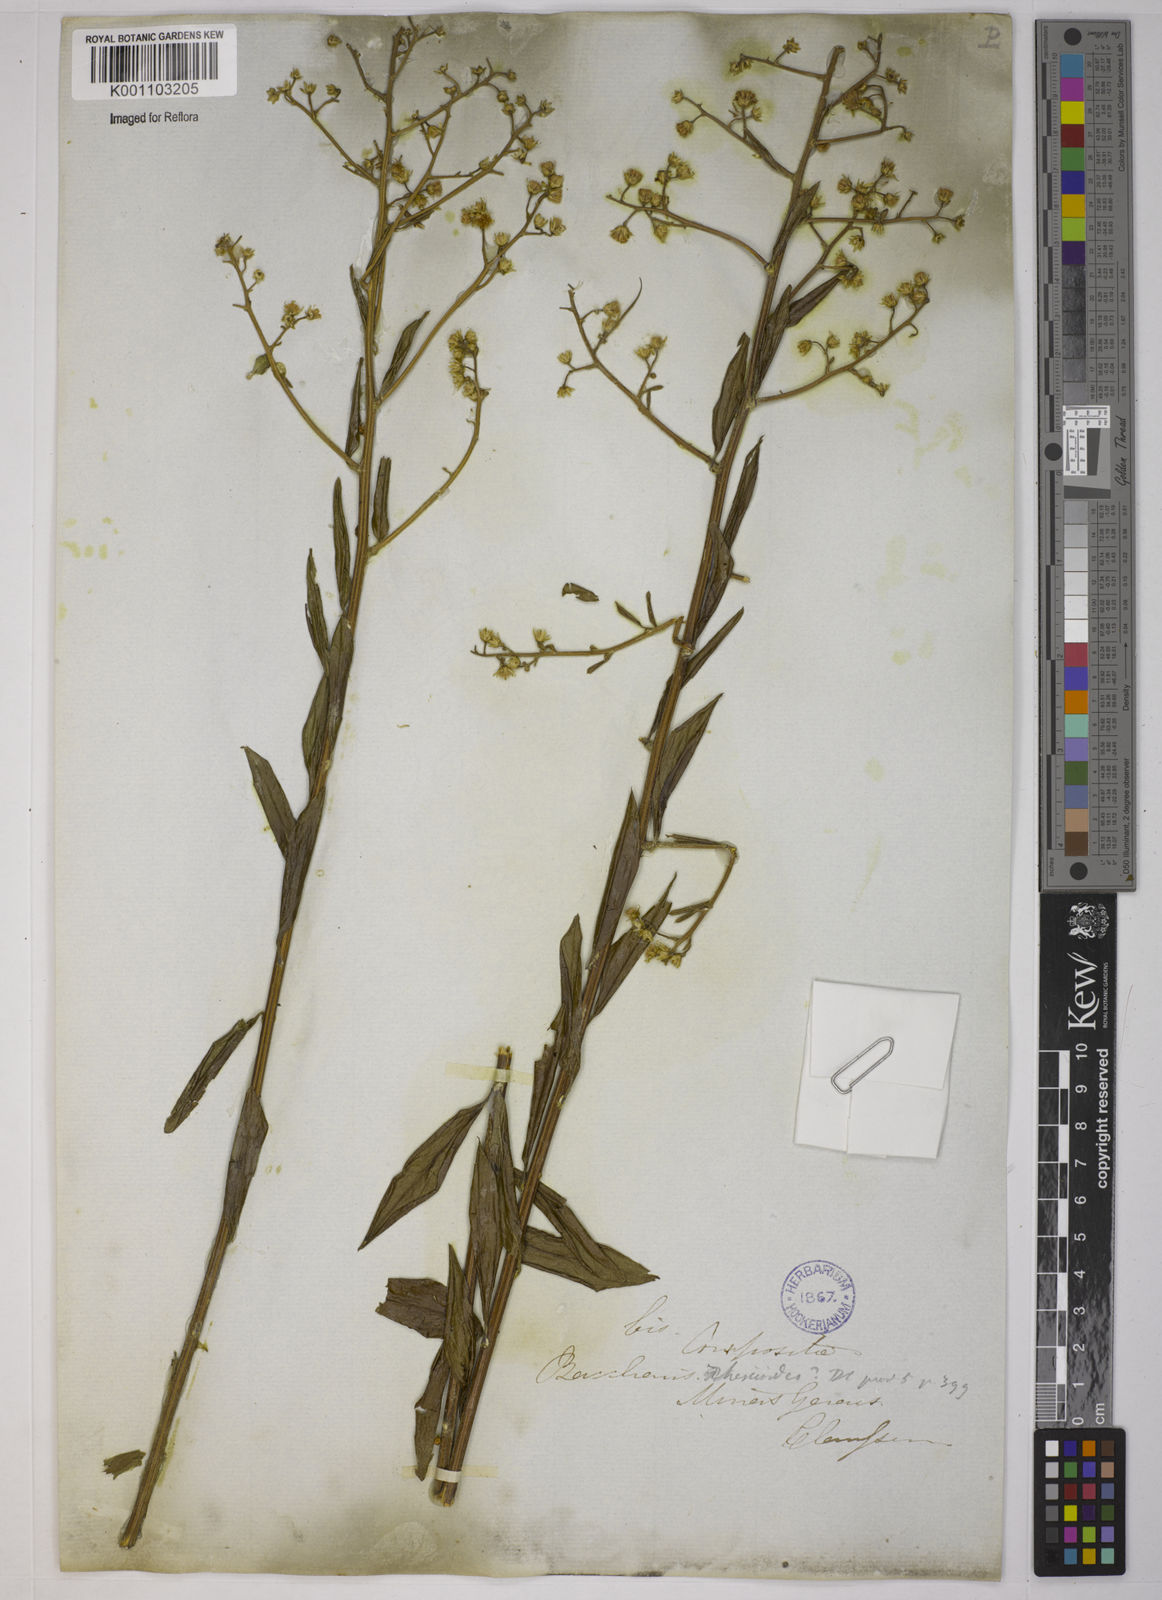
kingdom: Plantae
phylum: Tracheophyta
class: Magnoliopsida
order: Asterales
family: Asteraceae
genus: Baccharis
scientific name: Baccharis trinervis
